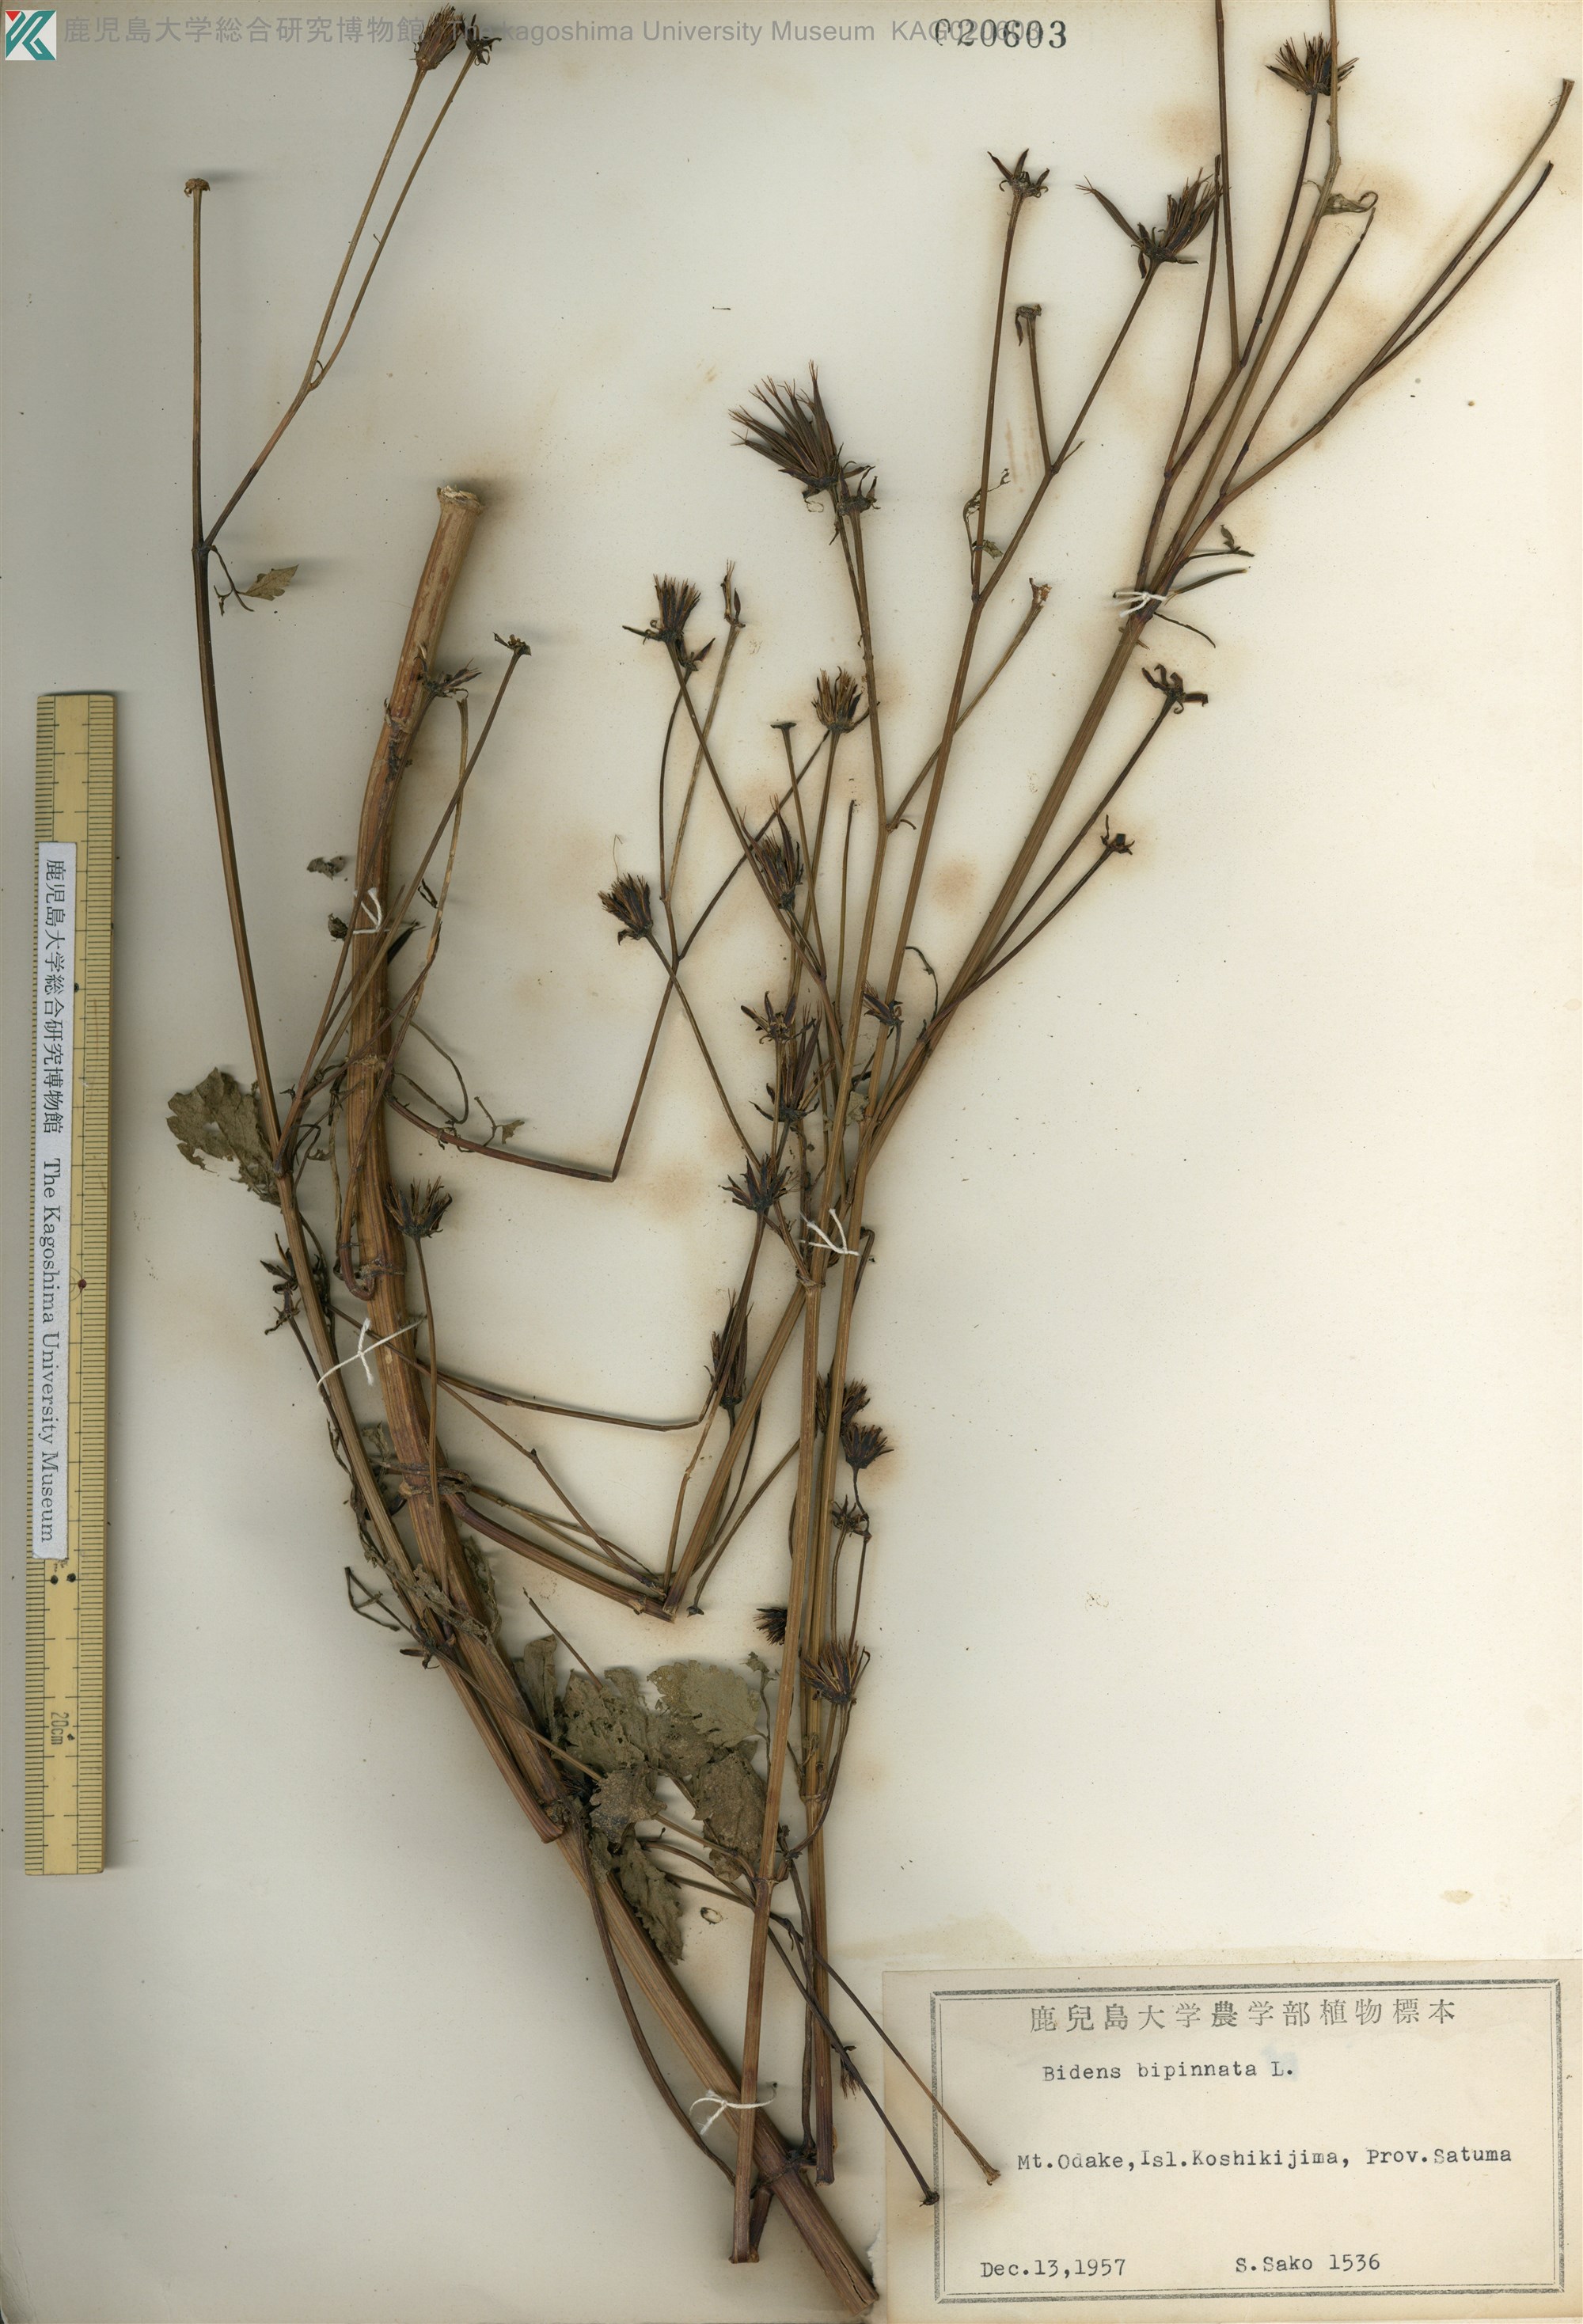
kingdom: Plantae
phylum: Tracheophyta
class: Magnoliopsida
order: Asterales
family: Asteraceae
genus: Bidens
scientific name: Bidens biternata
